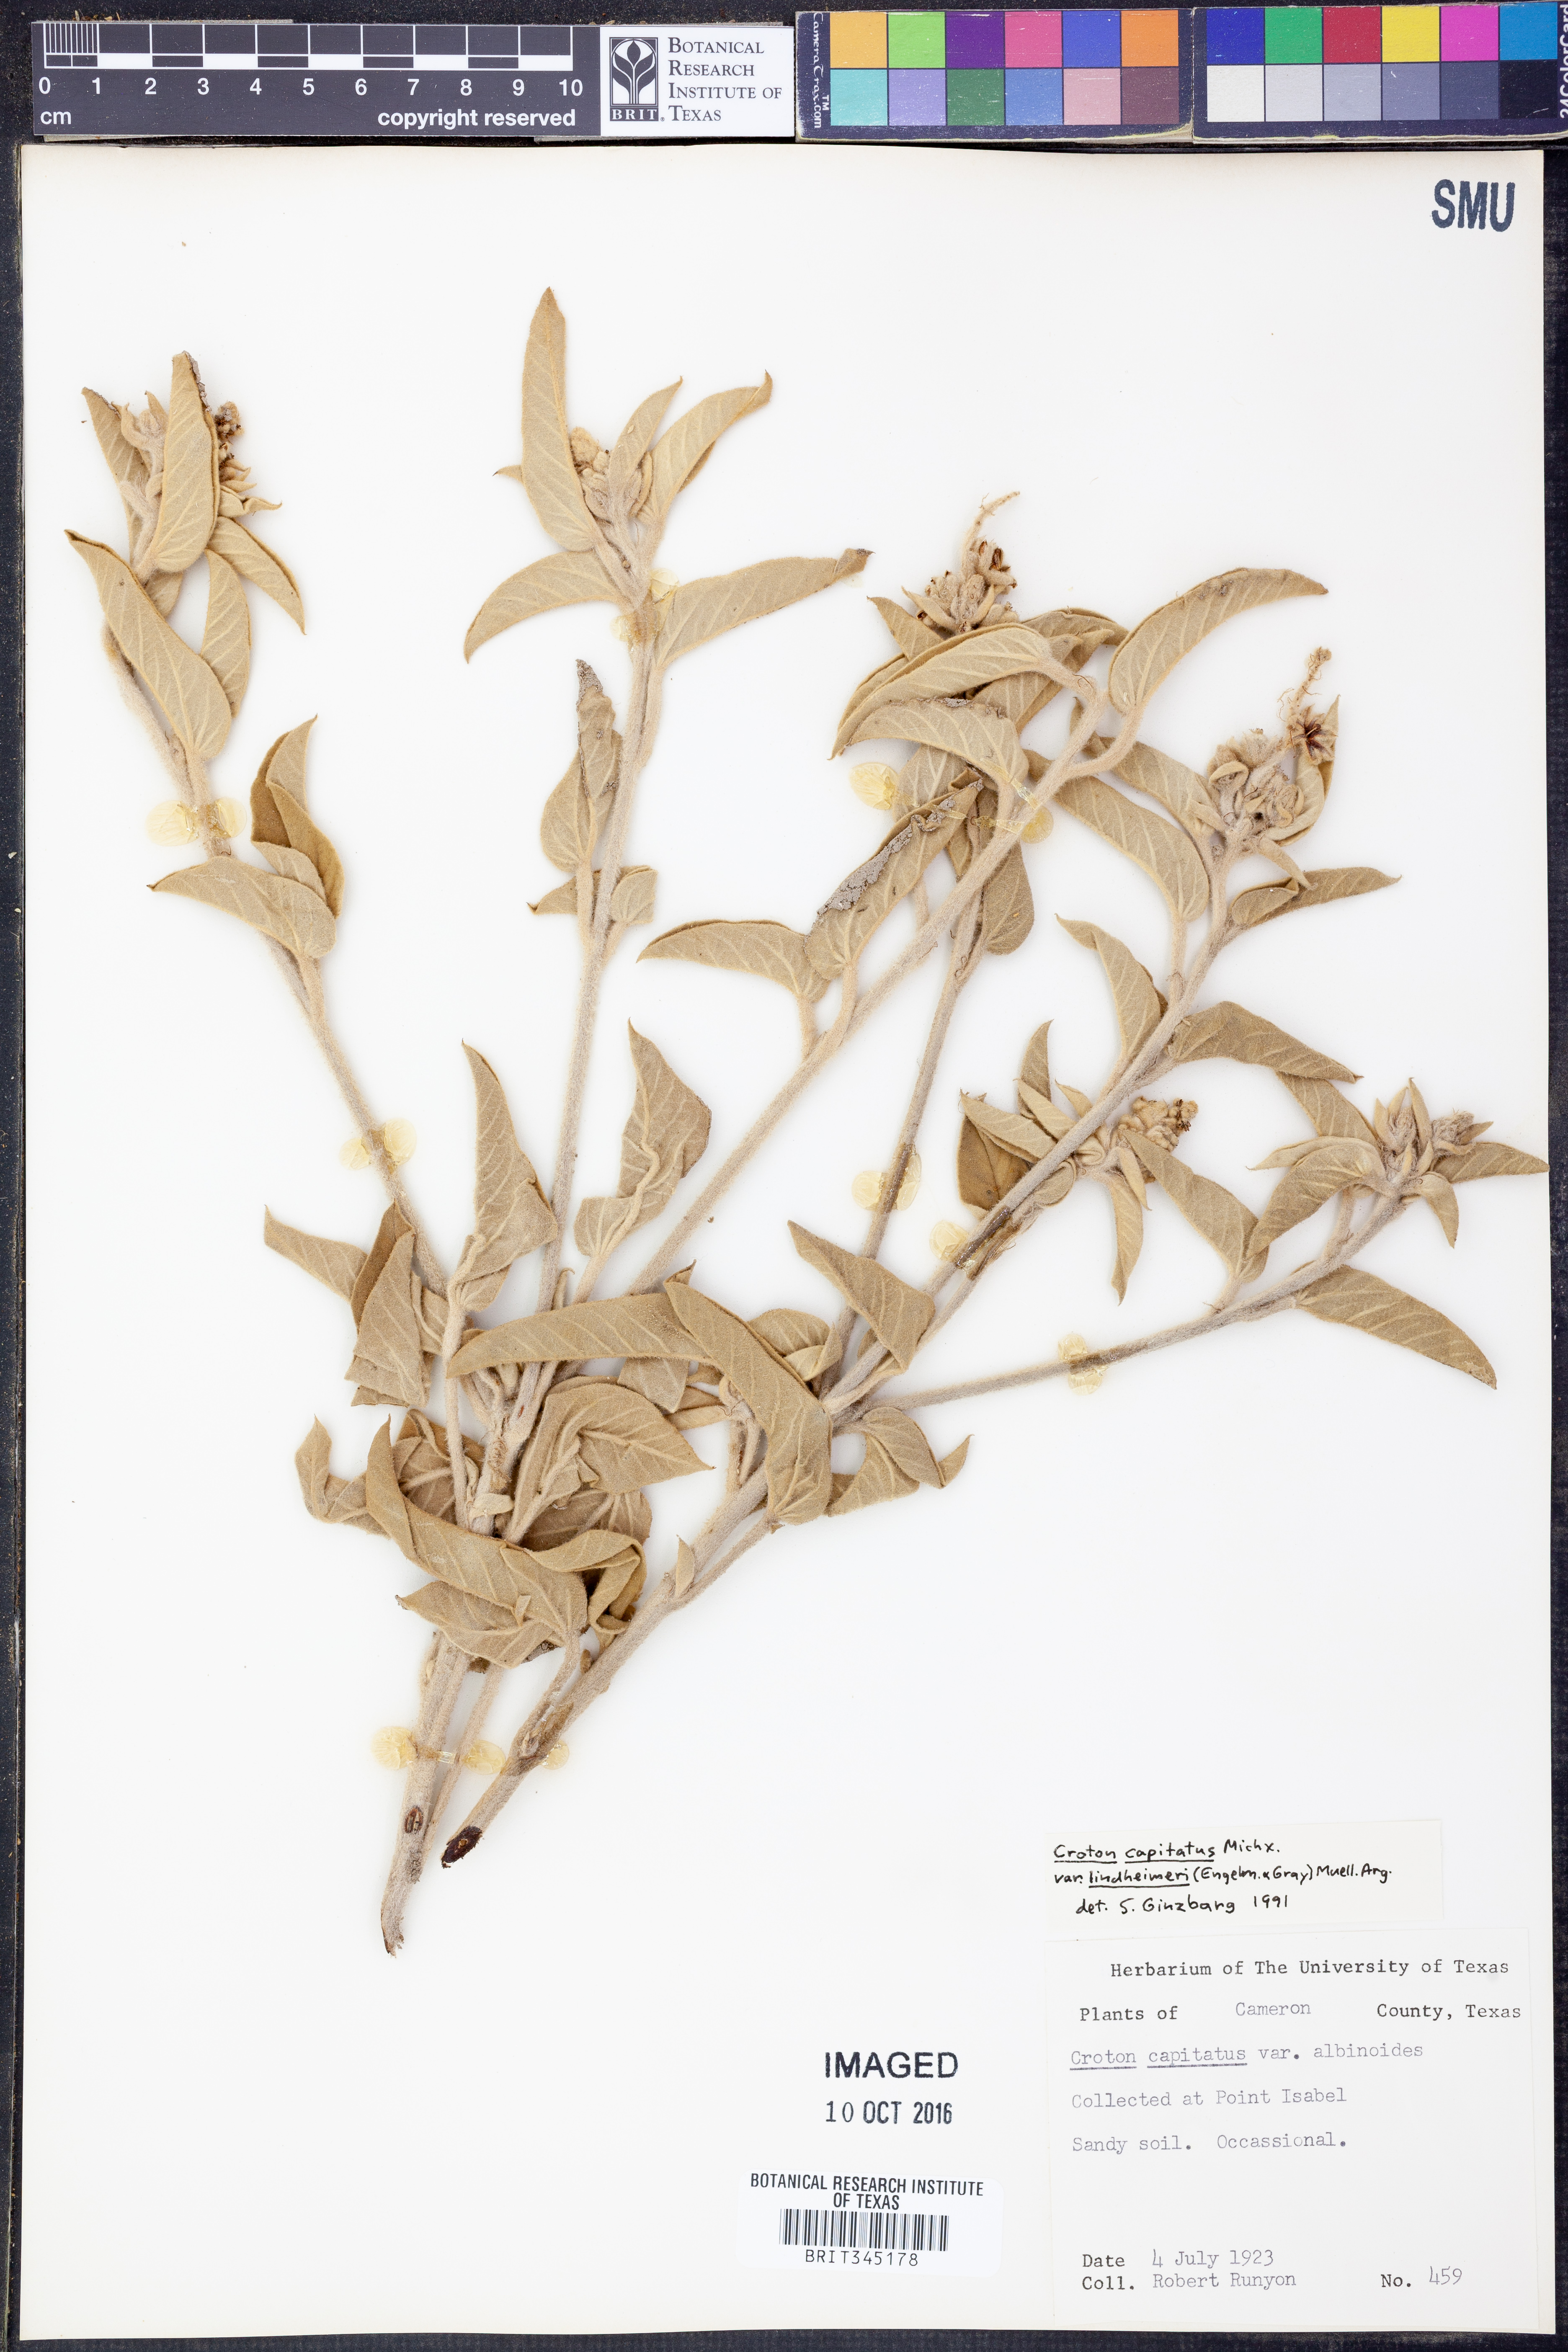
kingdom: Plantae
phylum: Tracheophyta
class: Magnoliopsida
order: Malpighiales
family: Euphorbiaceae
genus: Croton
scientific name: Croton lindheimeri
